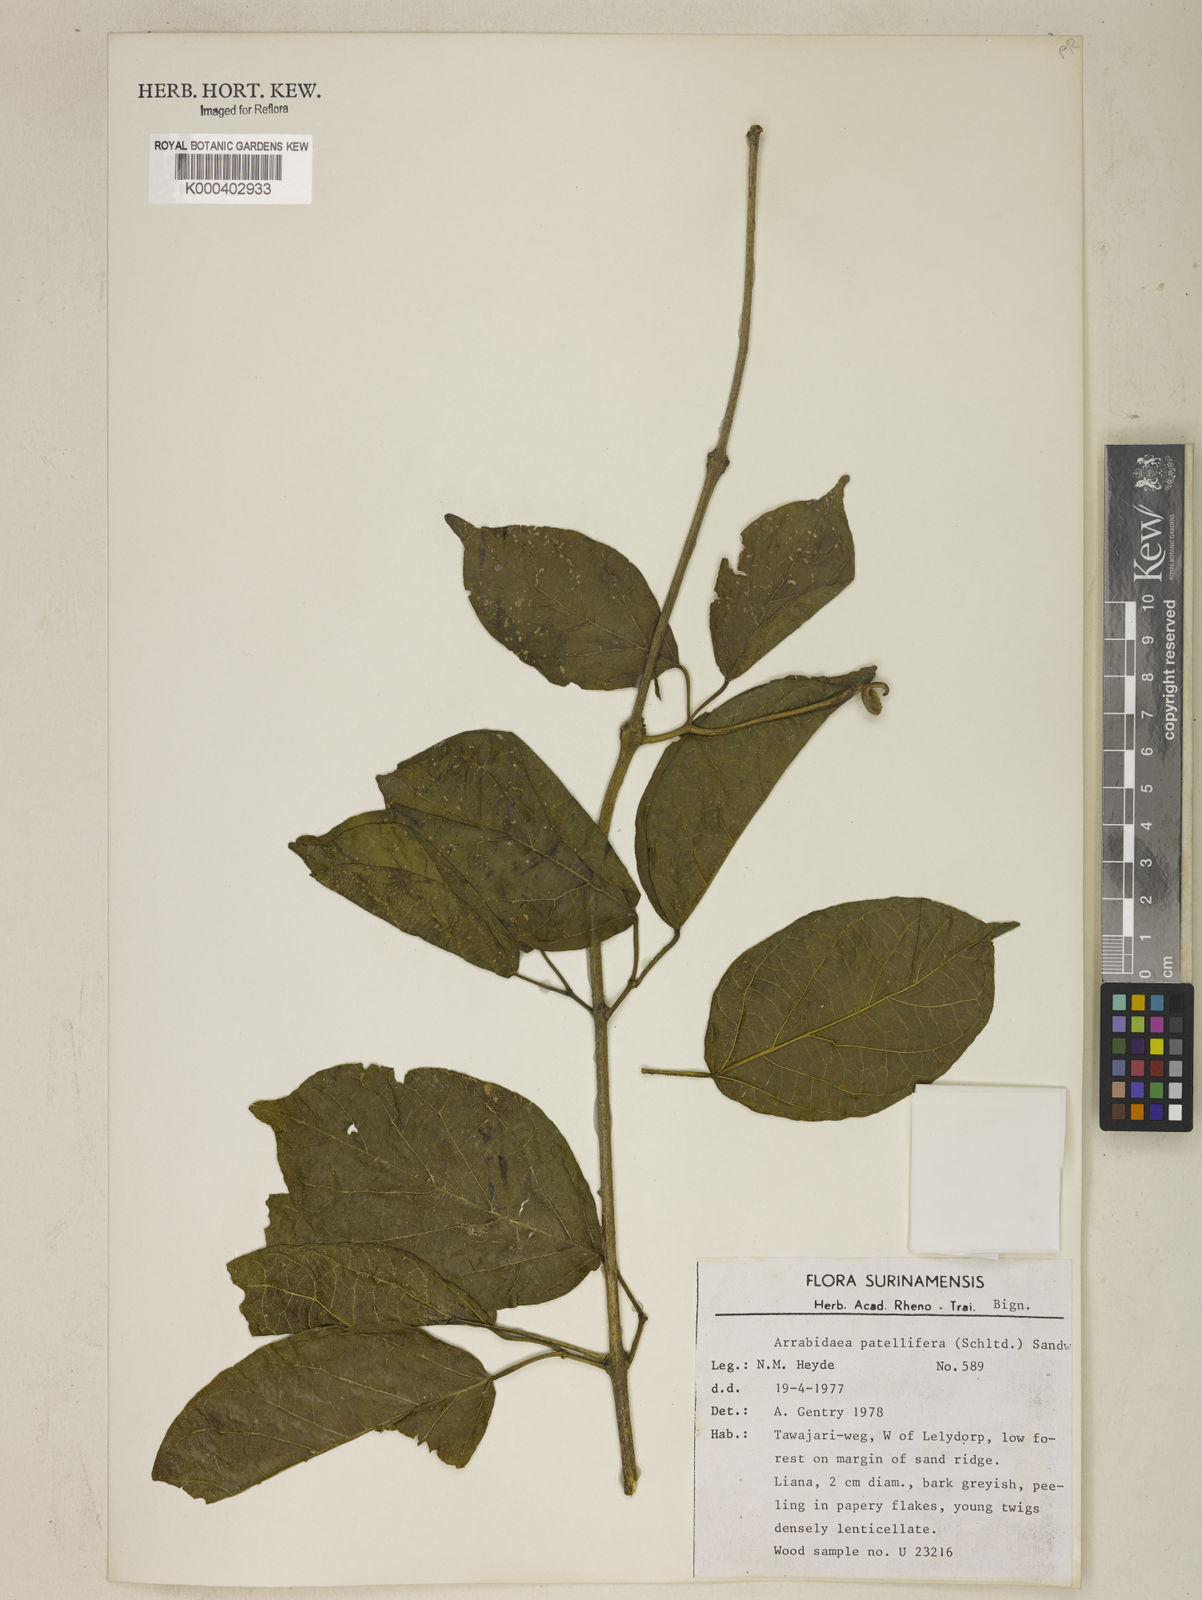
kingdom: Plantae
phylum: Tracheophyta
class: Magnoliopsida
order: Lamiales
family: Bignoniaceae
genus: Fridericia
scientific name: Fridericia patellifera
